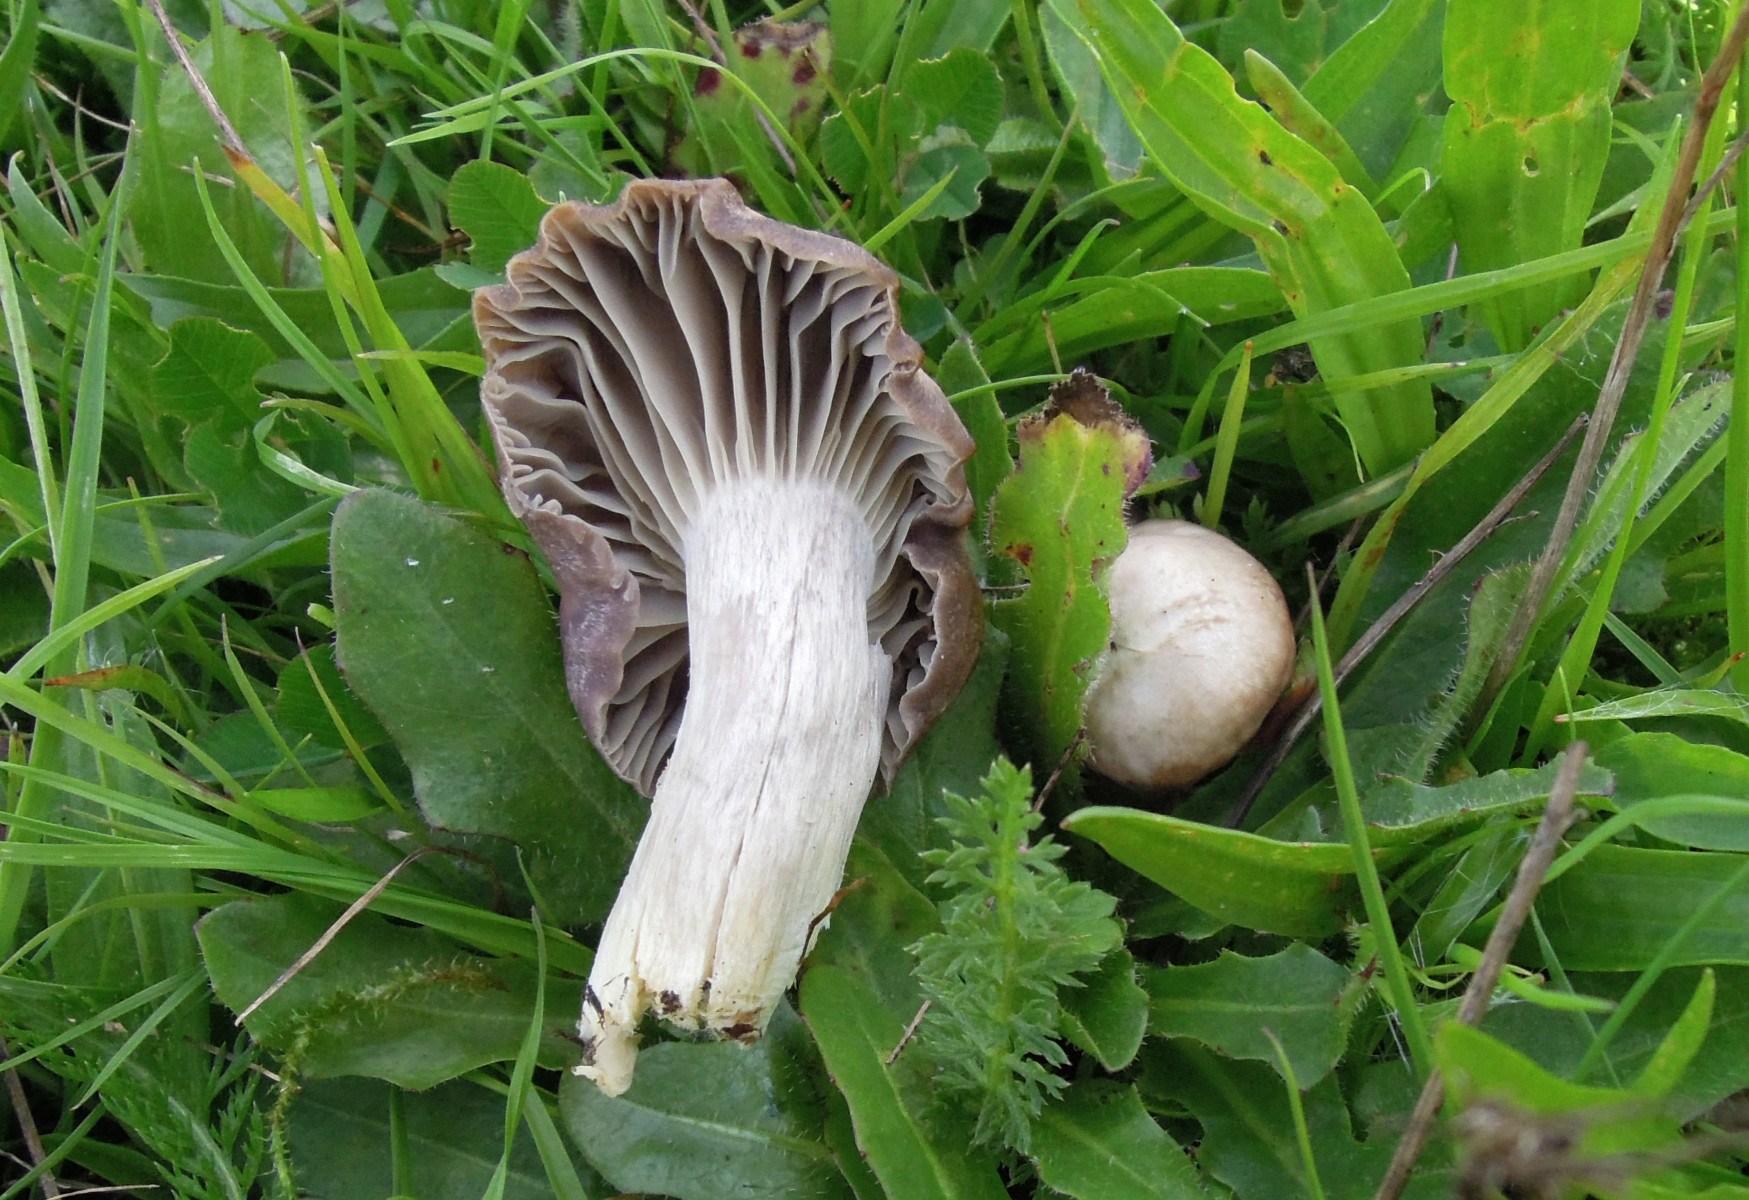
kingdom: Fungi
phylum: Basidiomycota
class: Agaricomycetes
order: Agaricales
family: Hygrophoraceae
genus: Cuphophyllus
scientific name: Cuphophyllus flavipes
